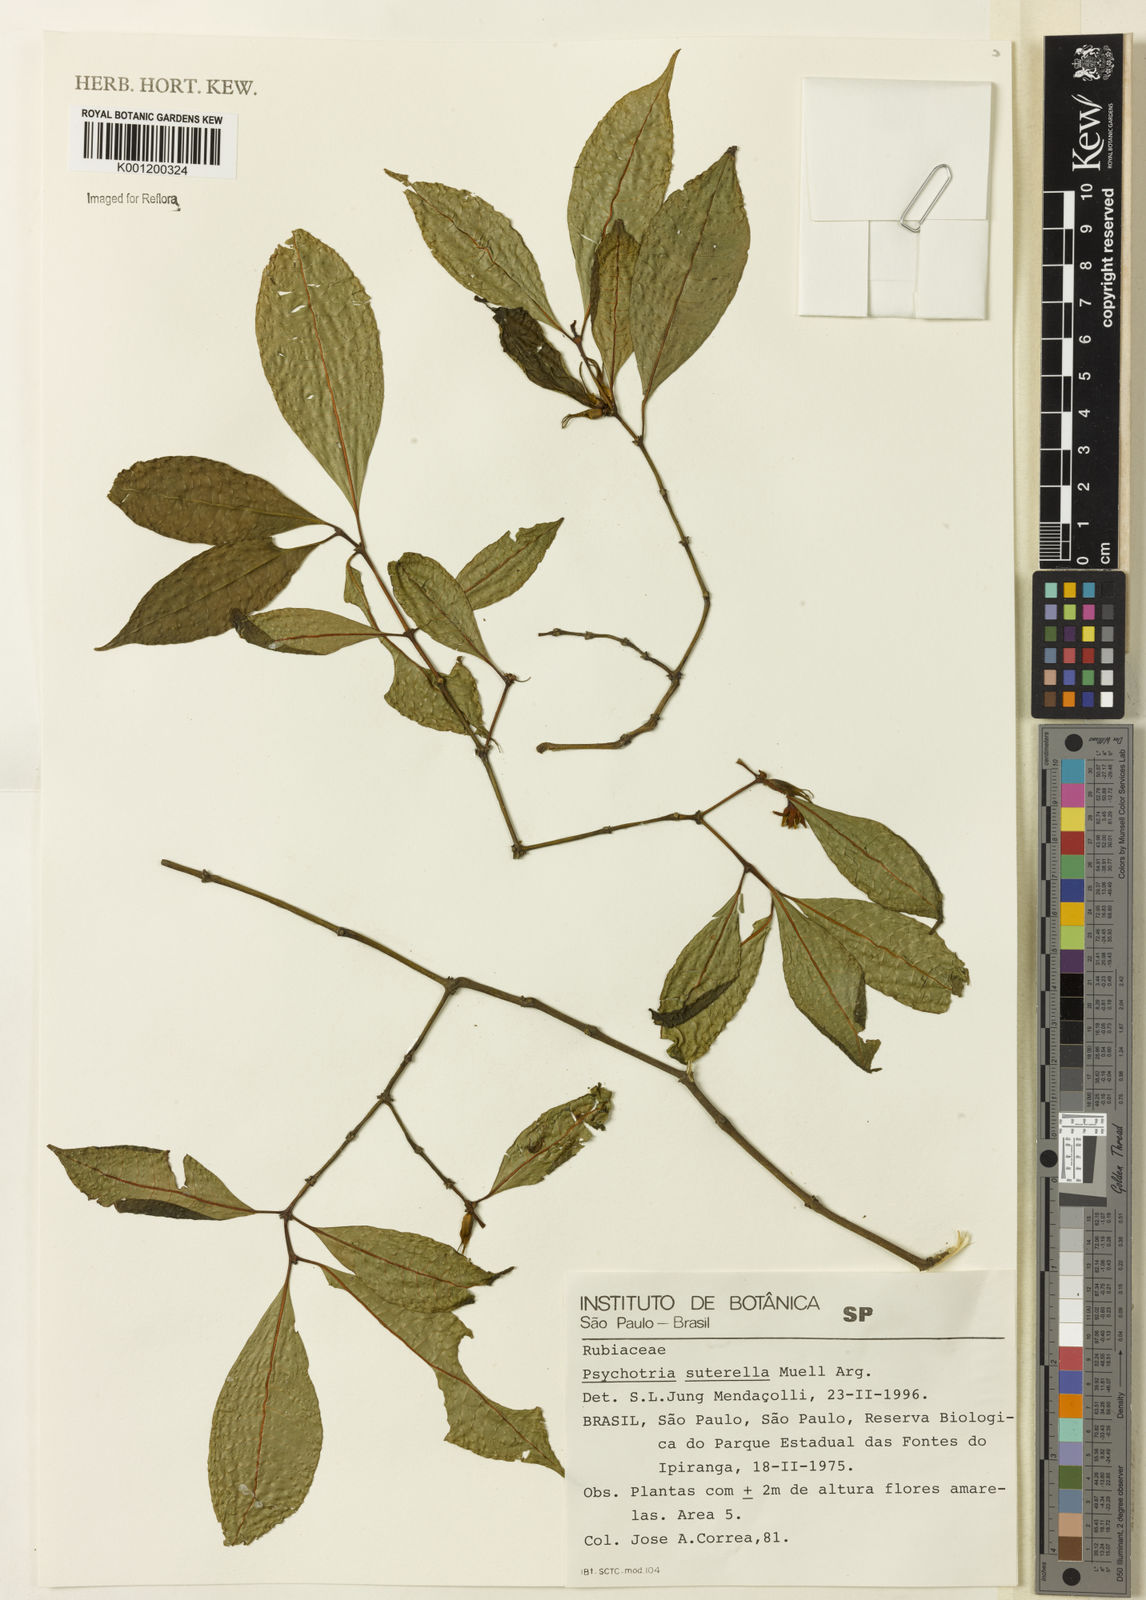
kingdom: Plantae
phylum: Tracheophyta
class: Magnoliopsida
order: Gentianales
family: Rubiaceae
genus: Psychotria
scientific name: Psychotria
